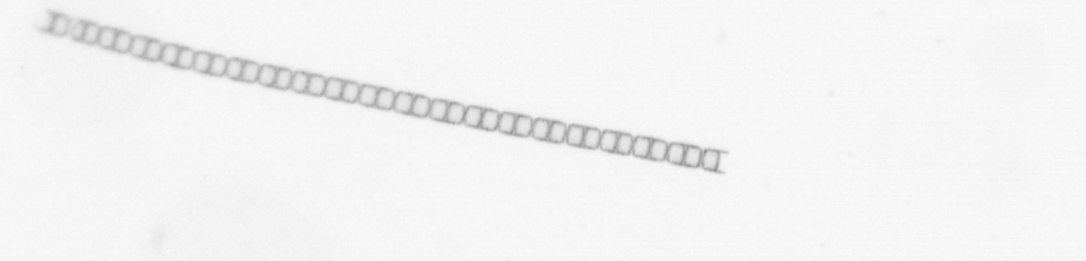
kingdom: Chromista
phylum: Ochrophyta
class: Bacillariophyceae
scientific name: Bacillariophyceae
